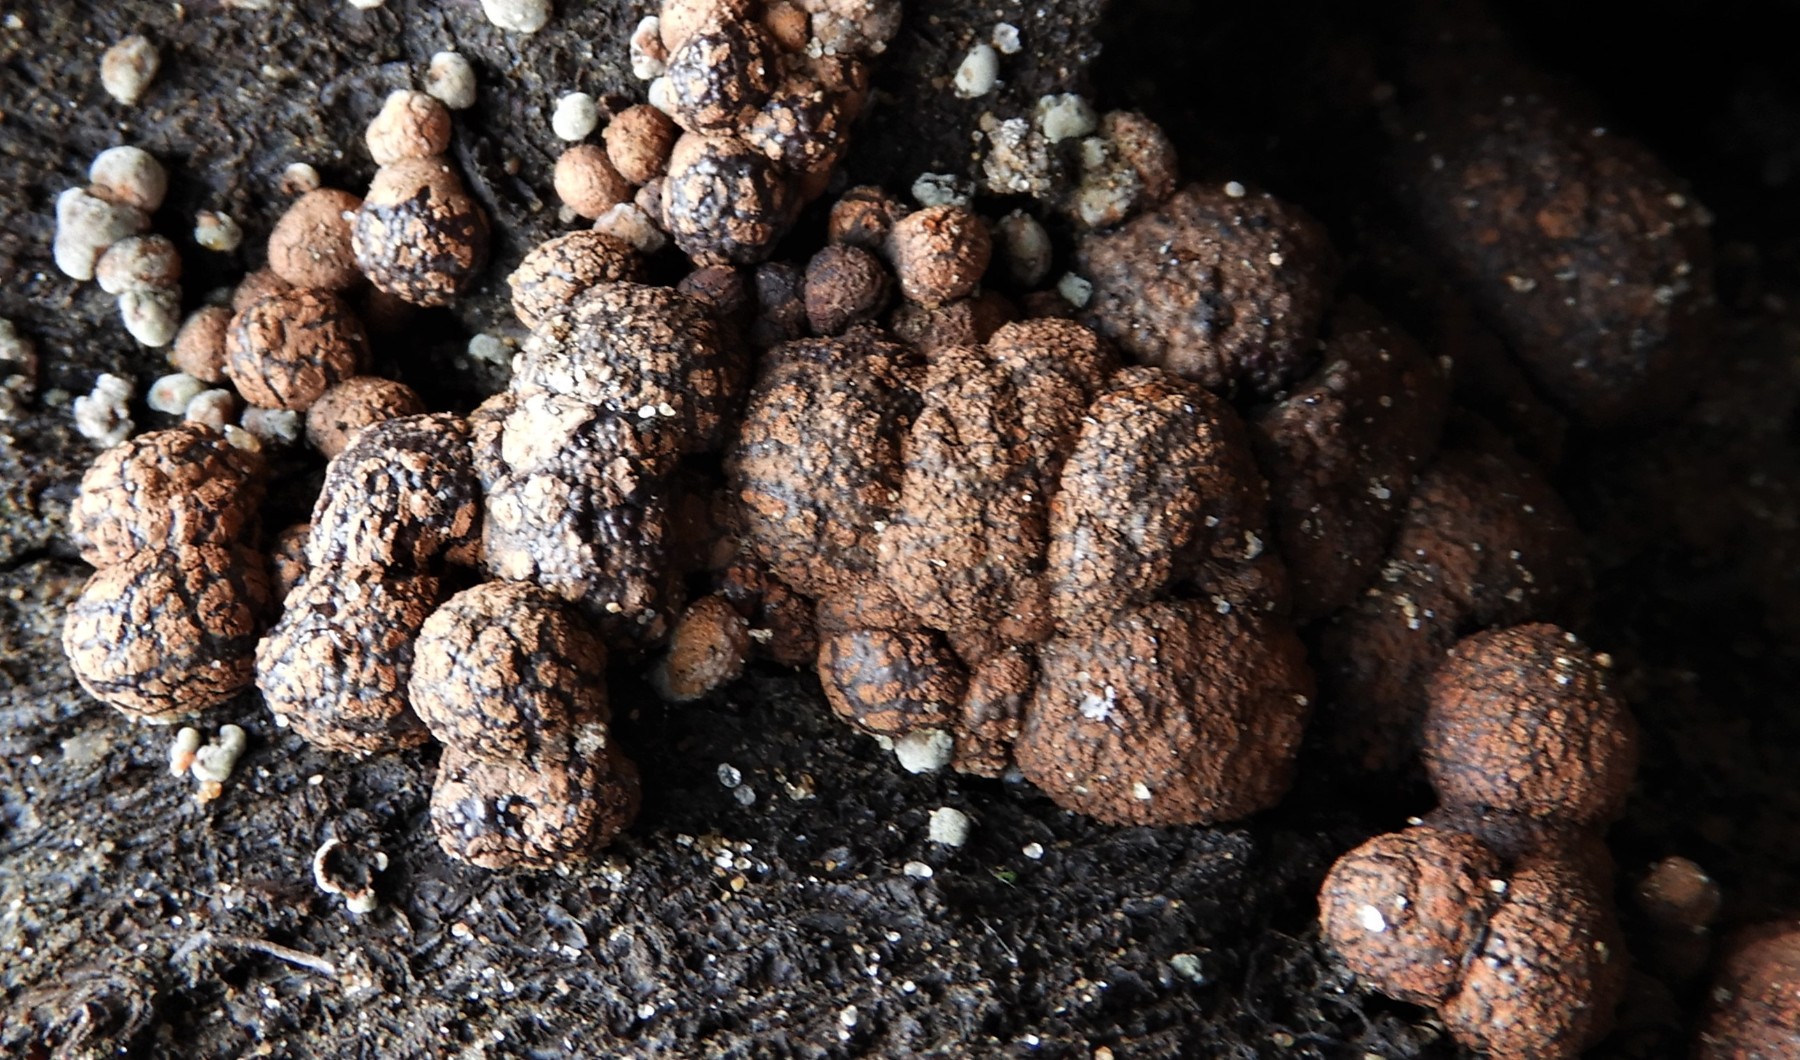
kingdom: Fungi
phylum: Ascomycota
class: Sordariomycetes
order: Xylariales
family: Hypoxylaceae
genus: Hypoxylon
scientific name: Hypoxylon fragiforme
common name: kuljordbær
